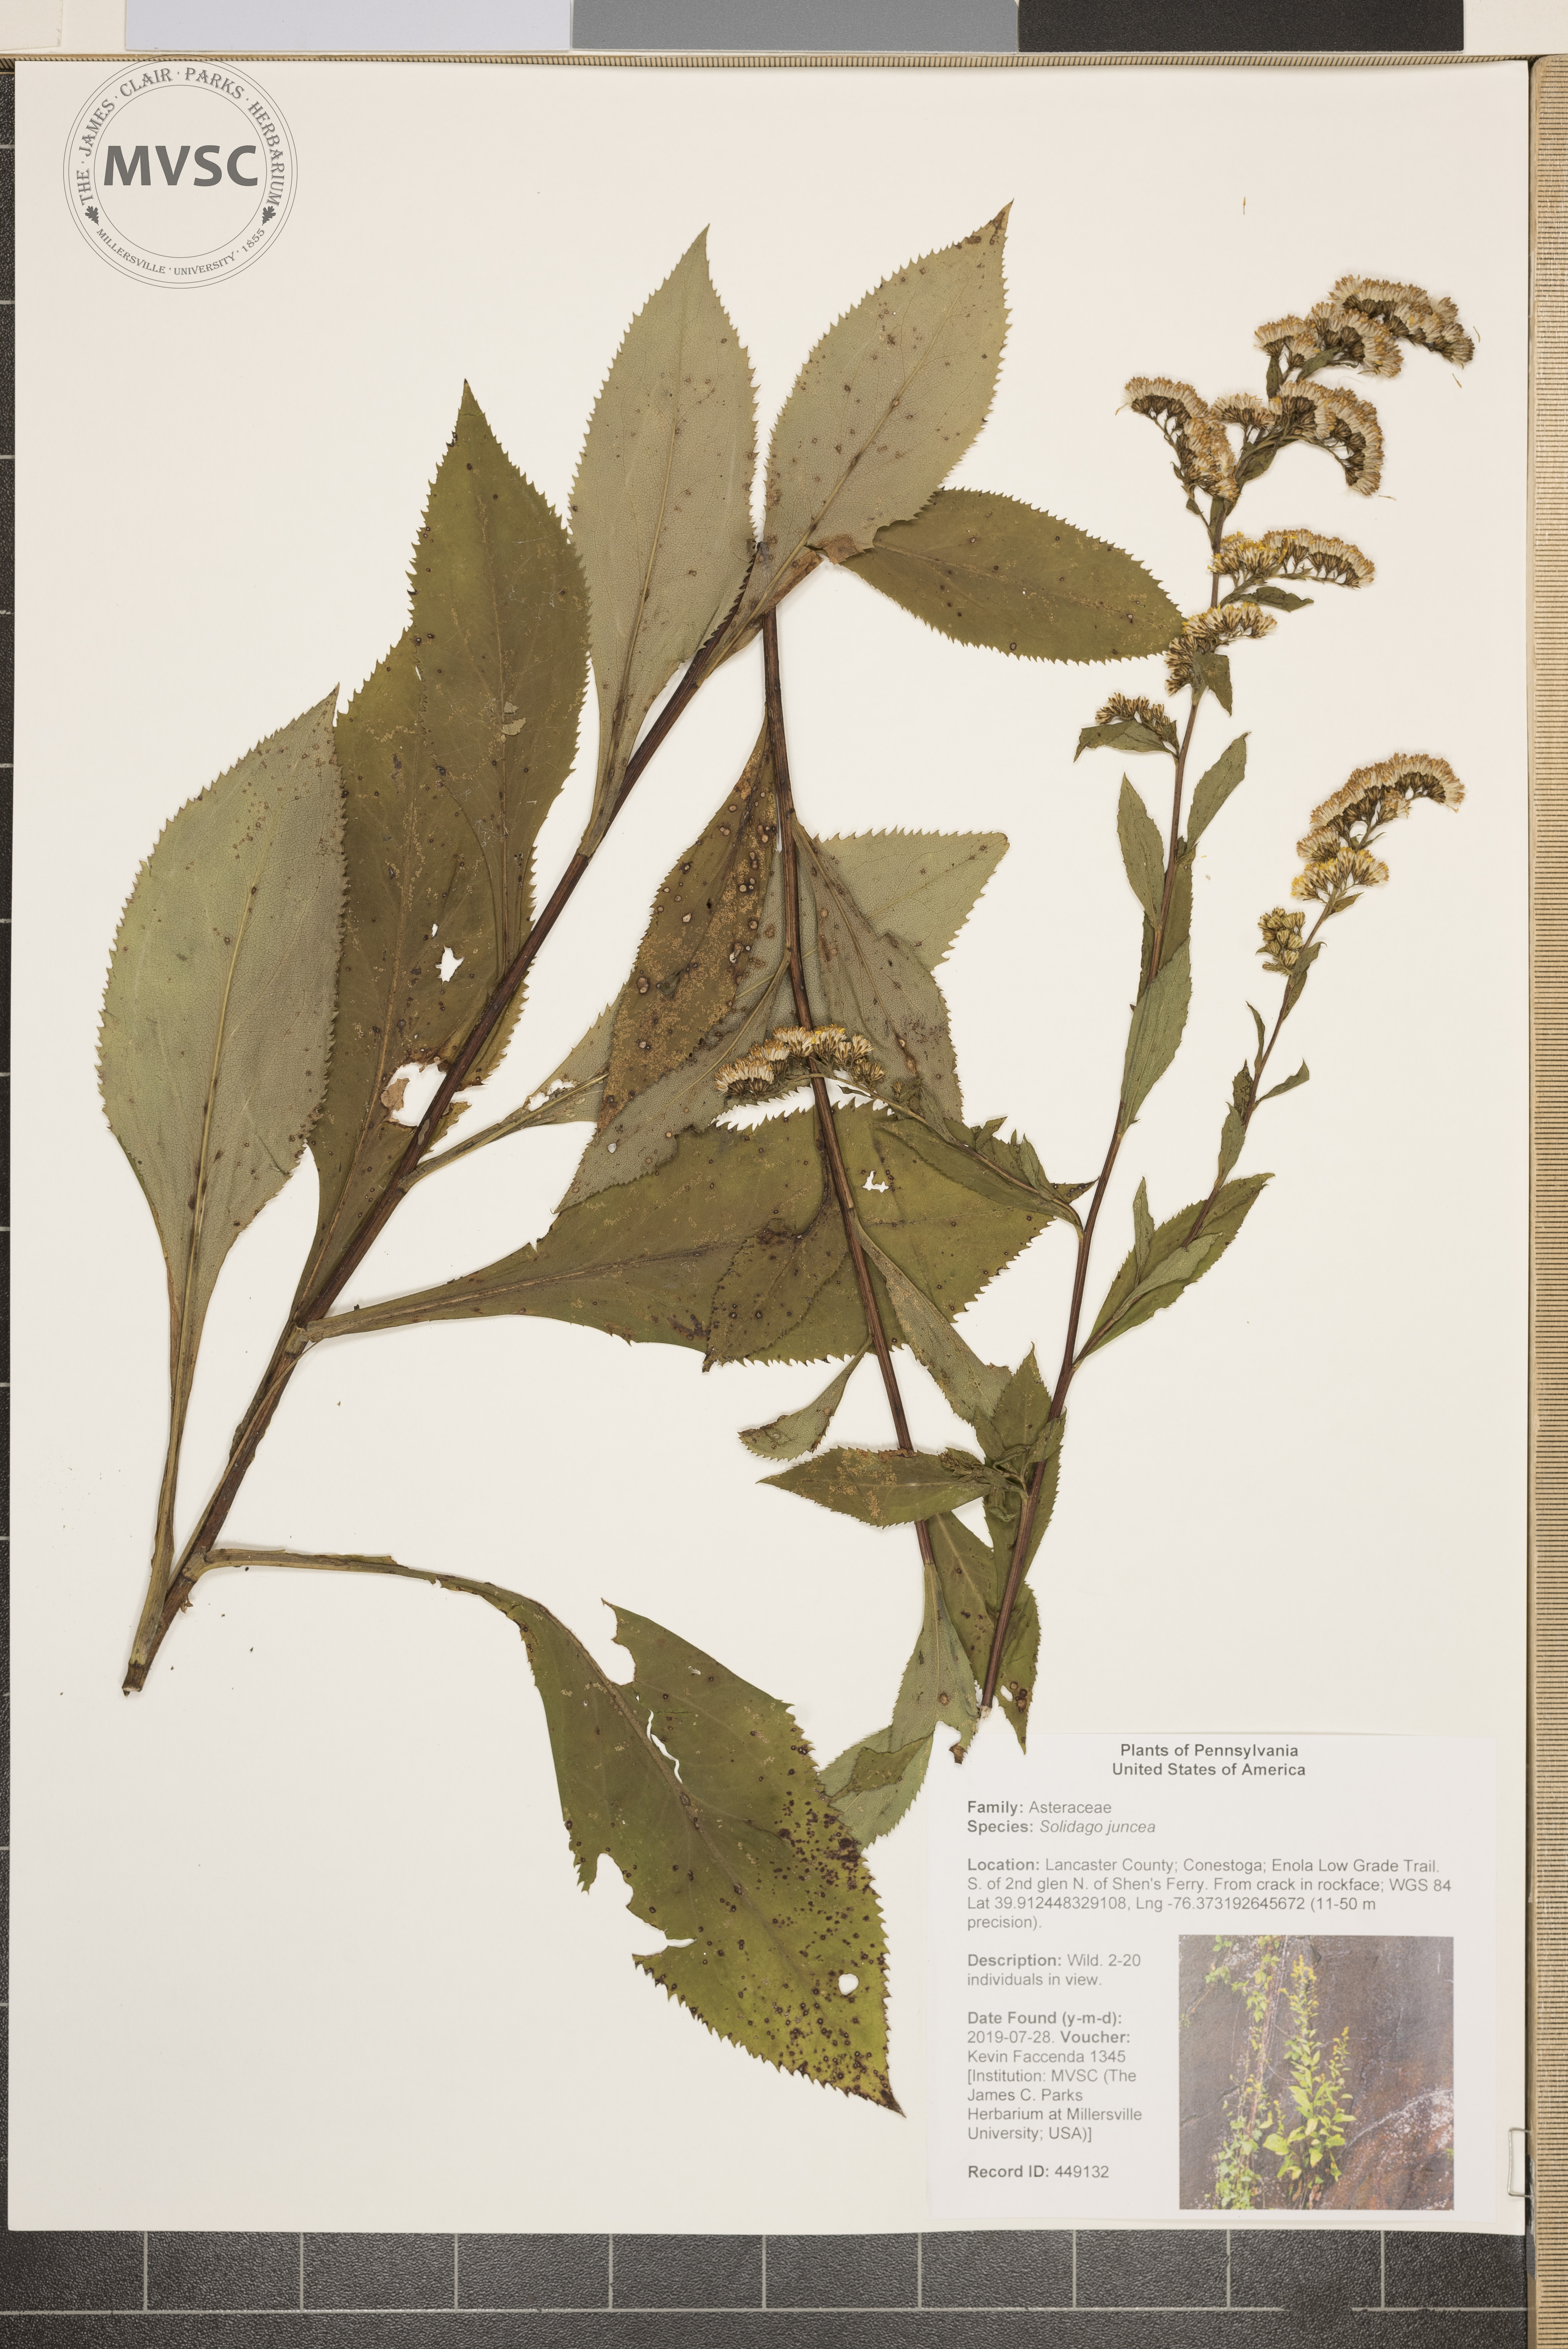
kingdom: Plantae
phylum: Tracheophyta
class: Magnoliopsida
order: Asterales
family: Asteraceae
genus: Solidago
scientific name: Solidago juncea
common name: Early goldenrod
